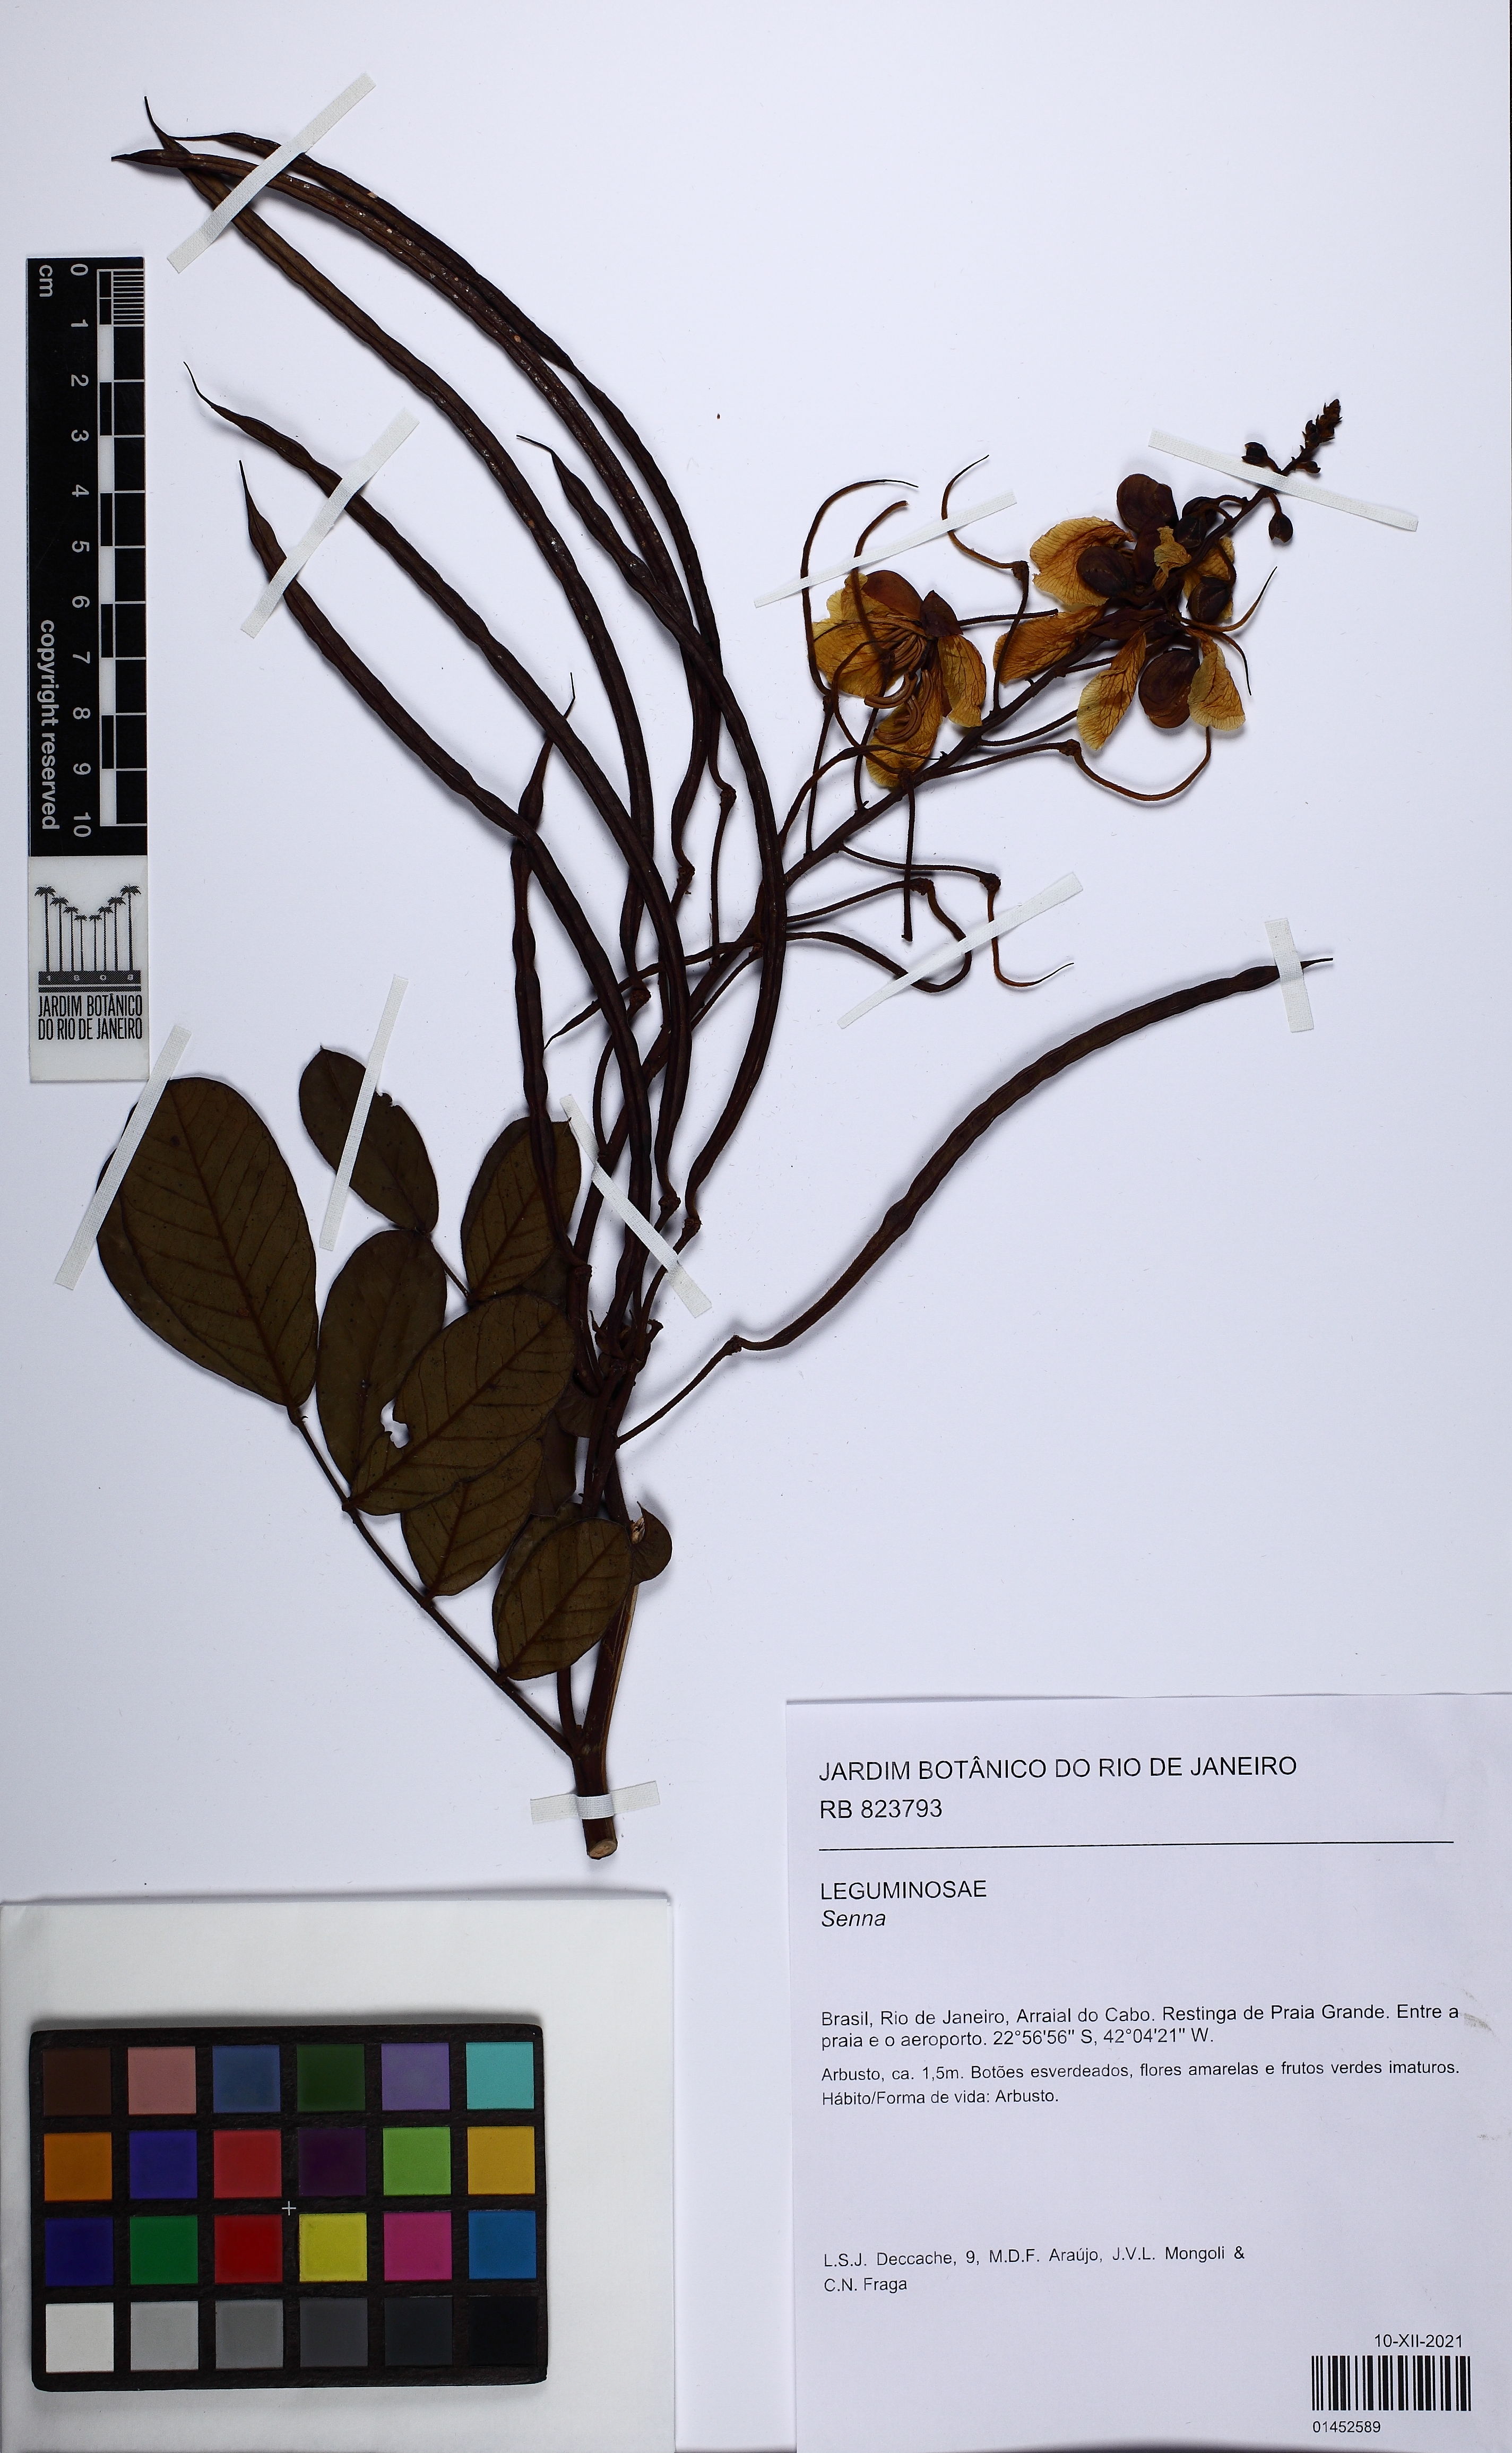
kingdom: Plantae
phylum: Tracheophyta
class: Magnoliopsida
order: Fabales
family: Fabaceae
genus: Senna
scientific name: Senna
